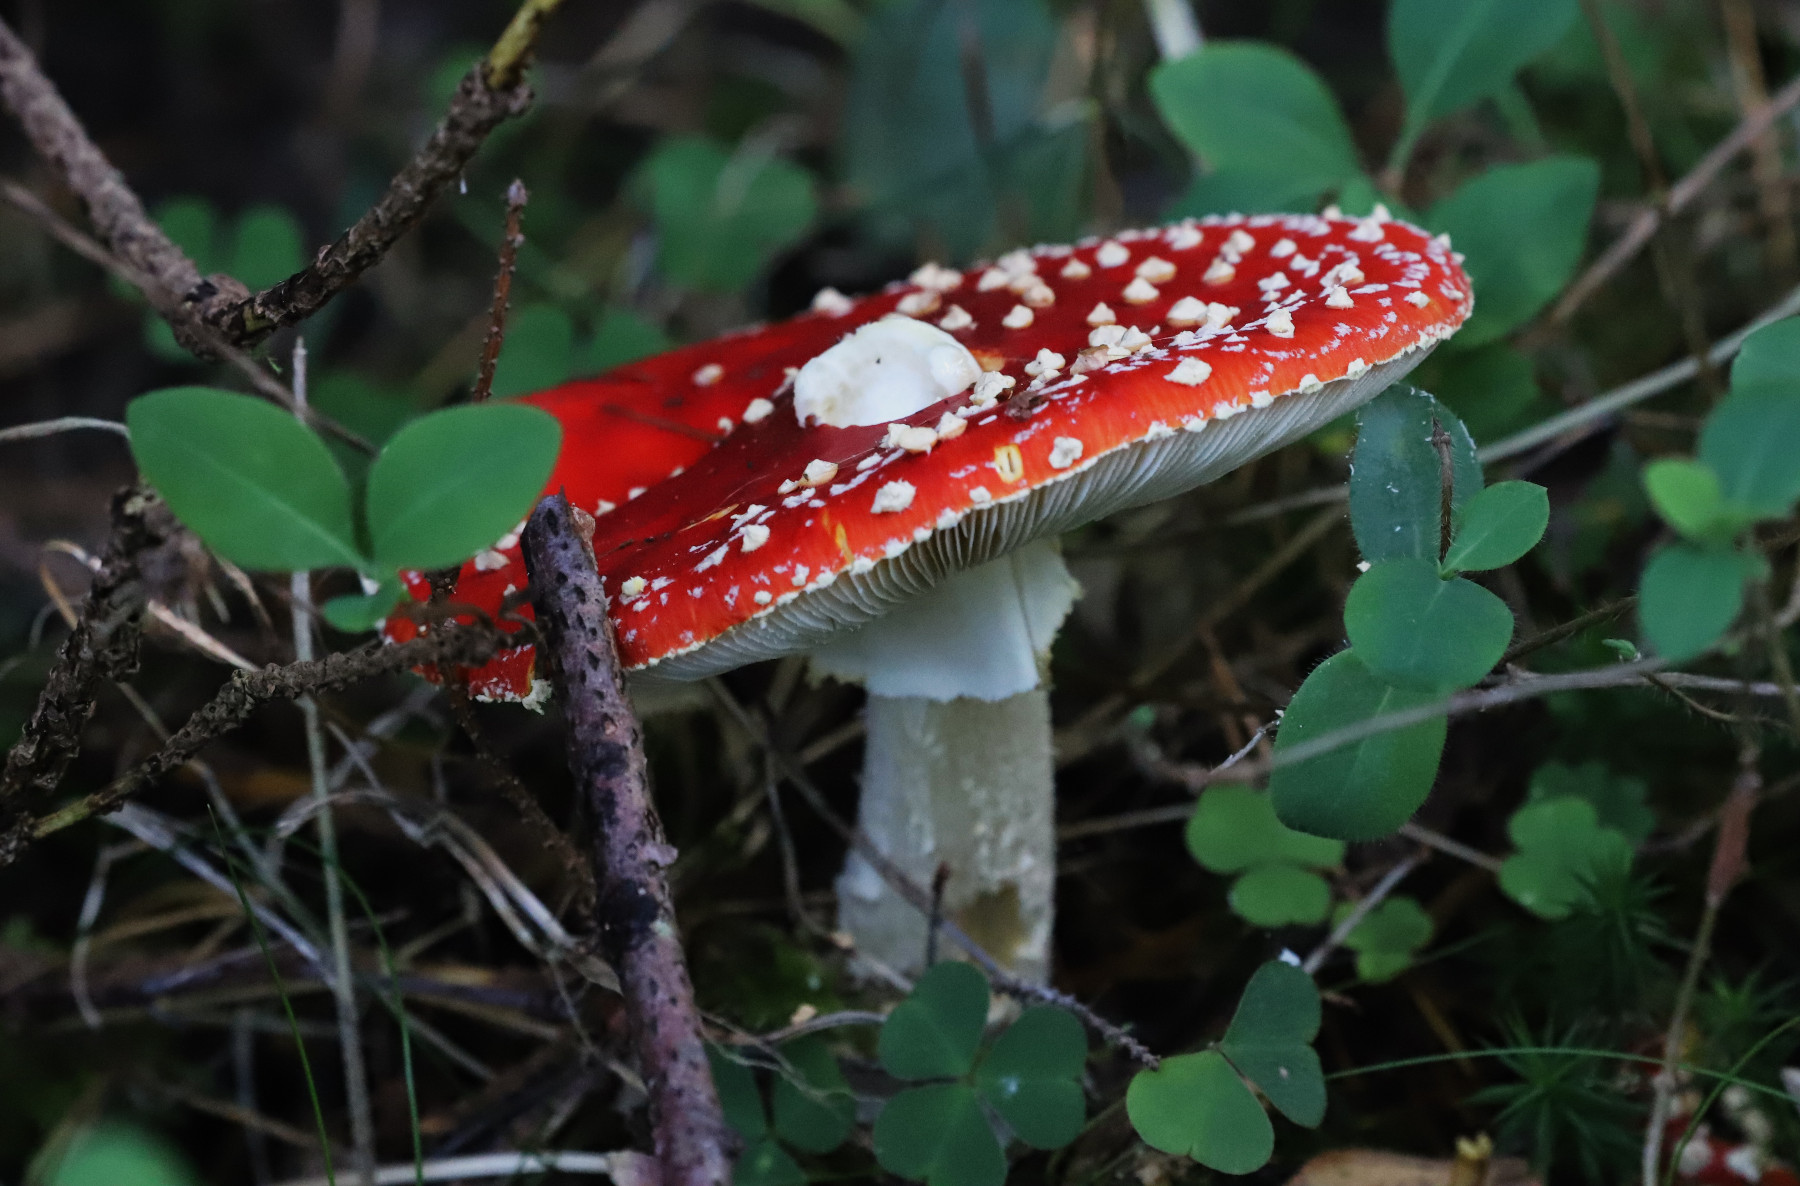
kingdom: Fungi
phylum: Basidiomycota
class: Agaricomycetes
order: Agaricales
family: Amanitaceae
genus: Amanita
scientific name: Amanita muscaria
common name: rød fluesvamp
